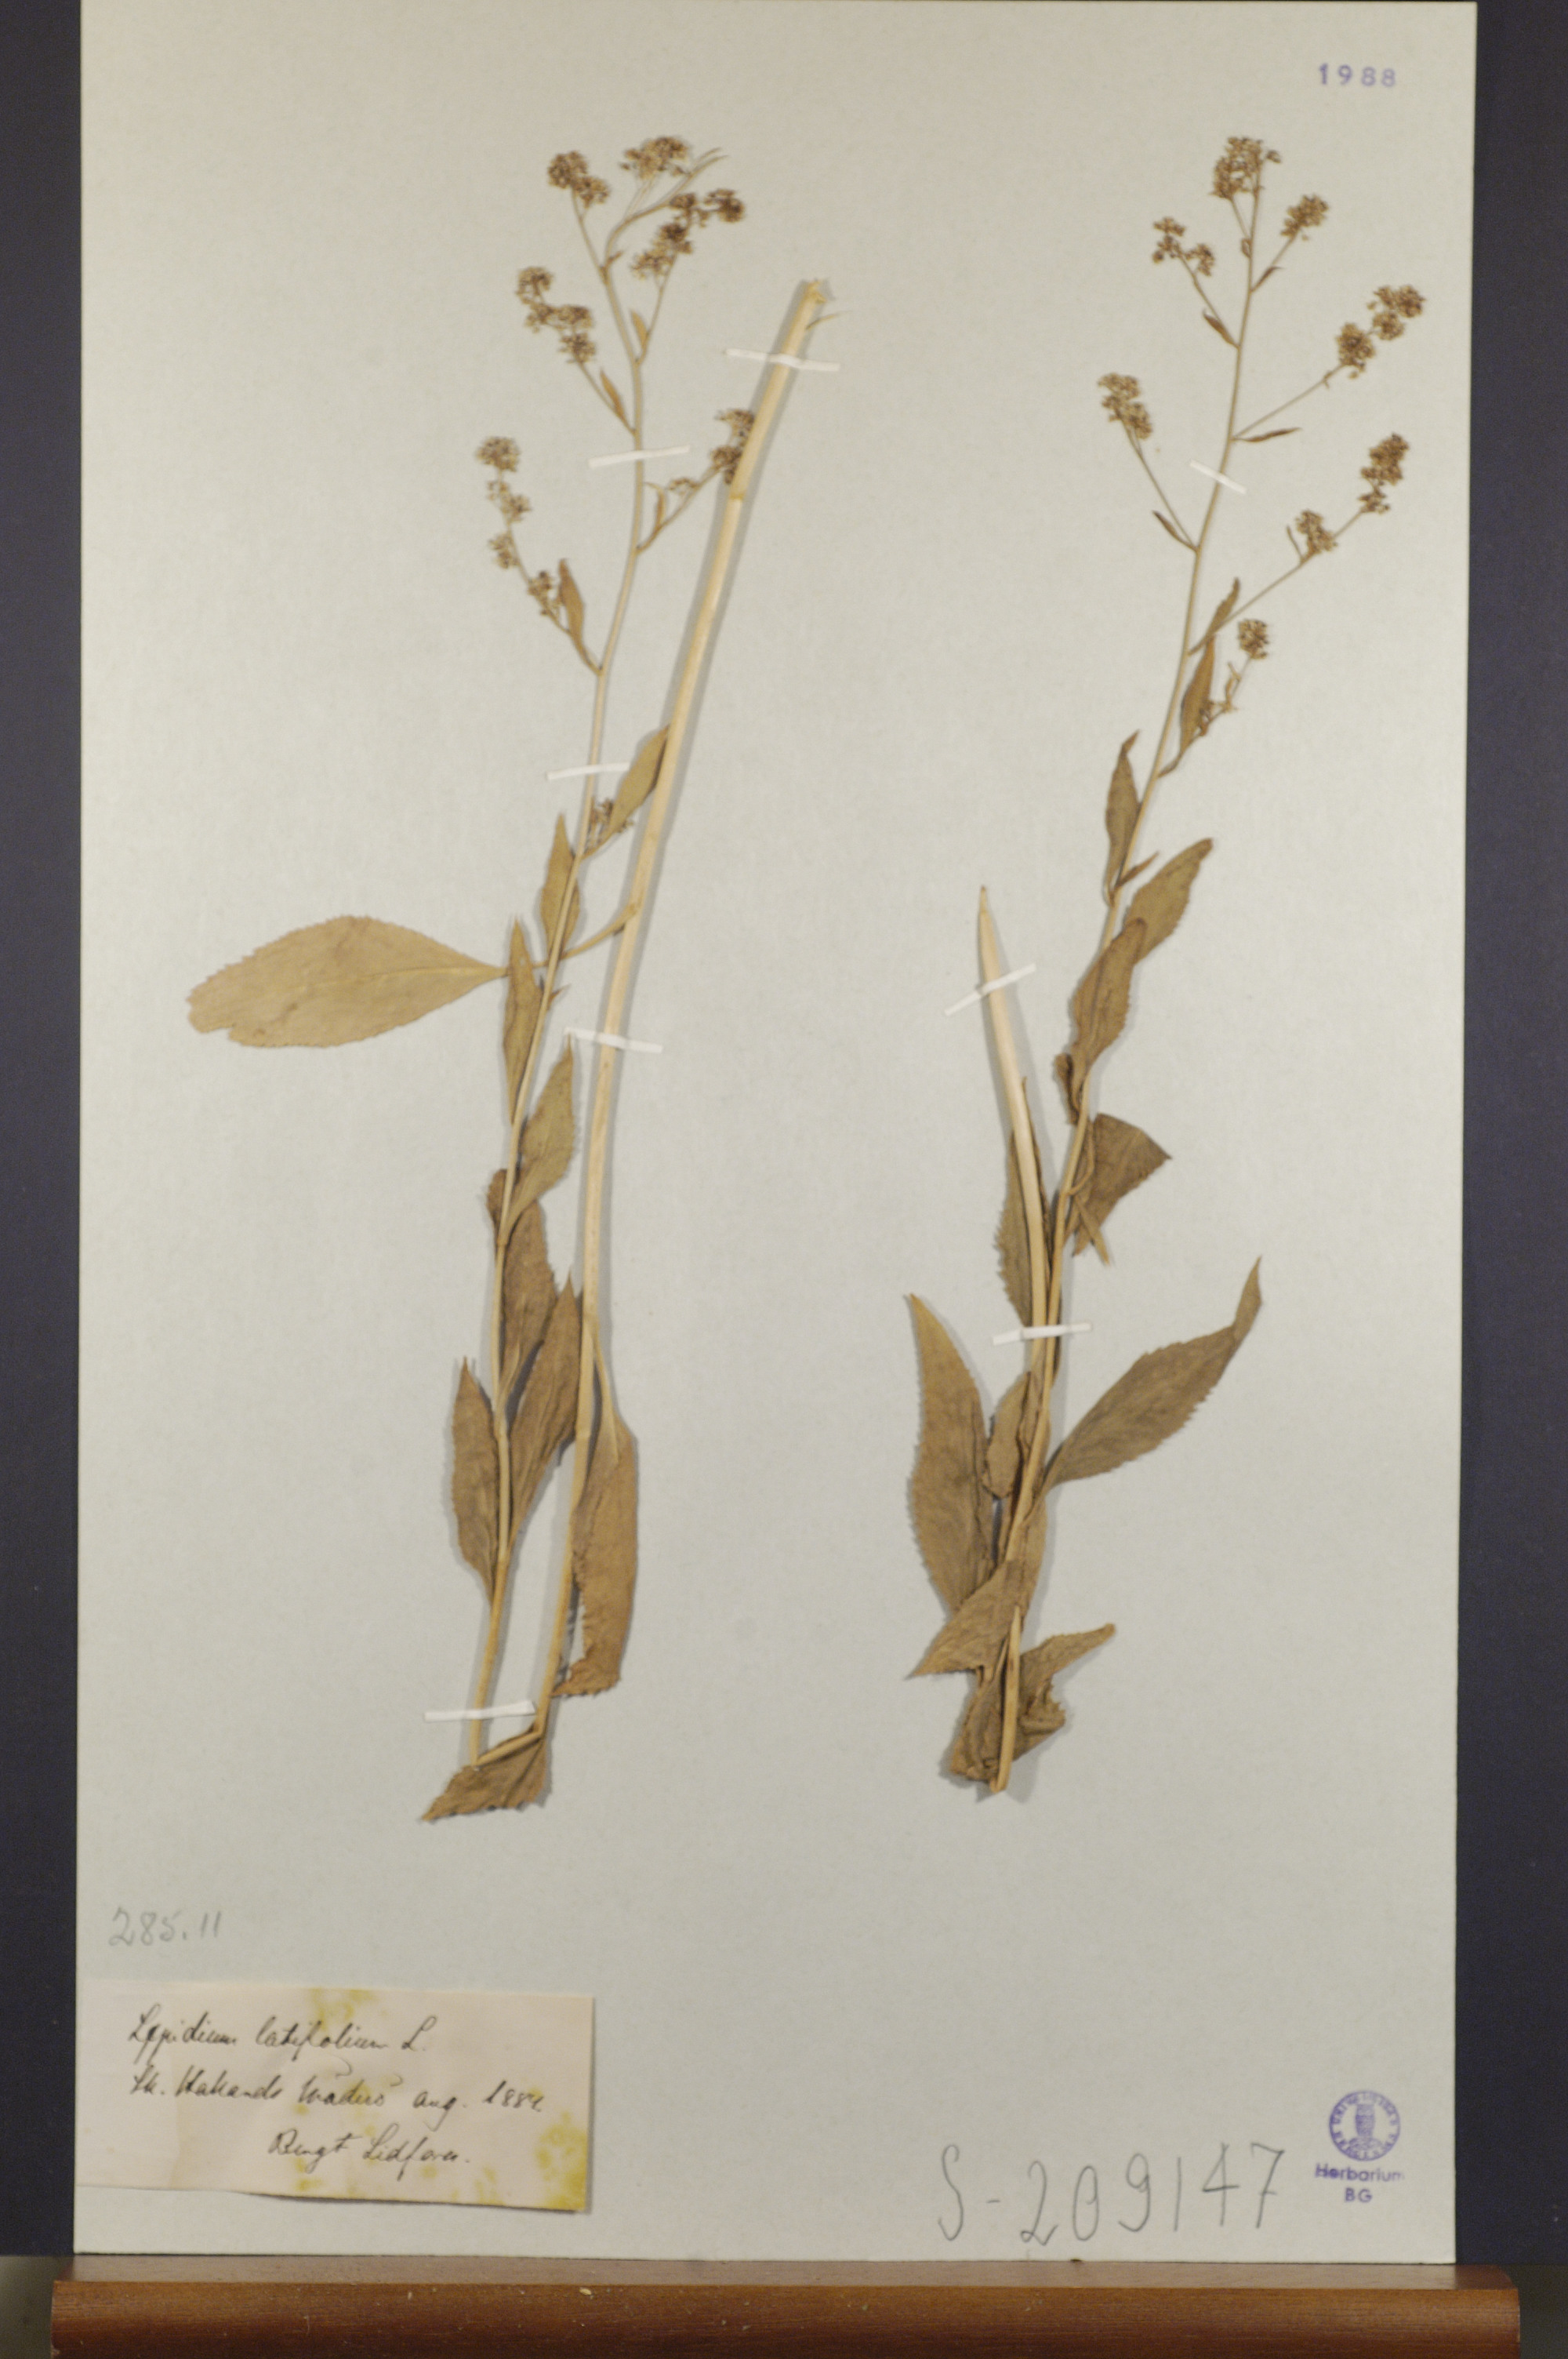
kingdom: Plantae
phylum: Tracheophyta
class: Magnoliopsida
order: Brassicales
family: Brassicaceae
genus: Lepidium
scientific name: Lepidium latifolium
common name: Dittander
